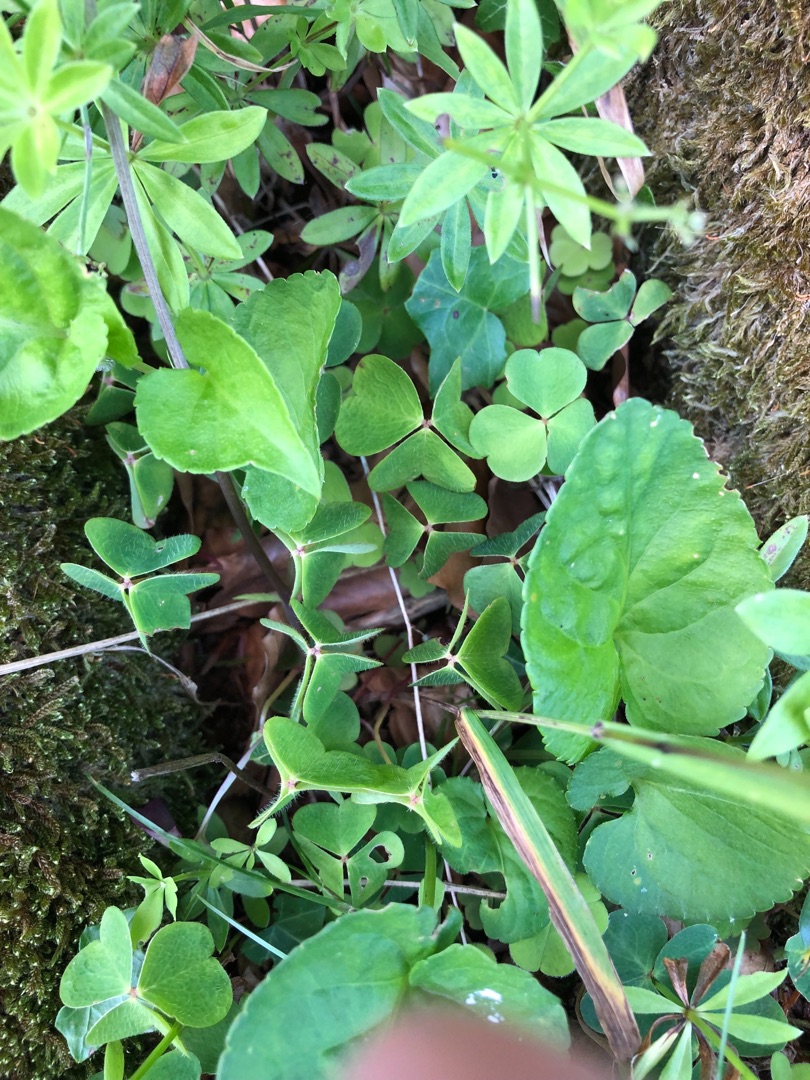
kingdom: Plantae
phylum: Tracheophyta
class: Magnoliopsida
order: Oxalidales
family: Oxalidaceae
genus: Oxalis
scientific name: Oxalis acetosella
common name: Skovsyre
